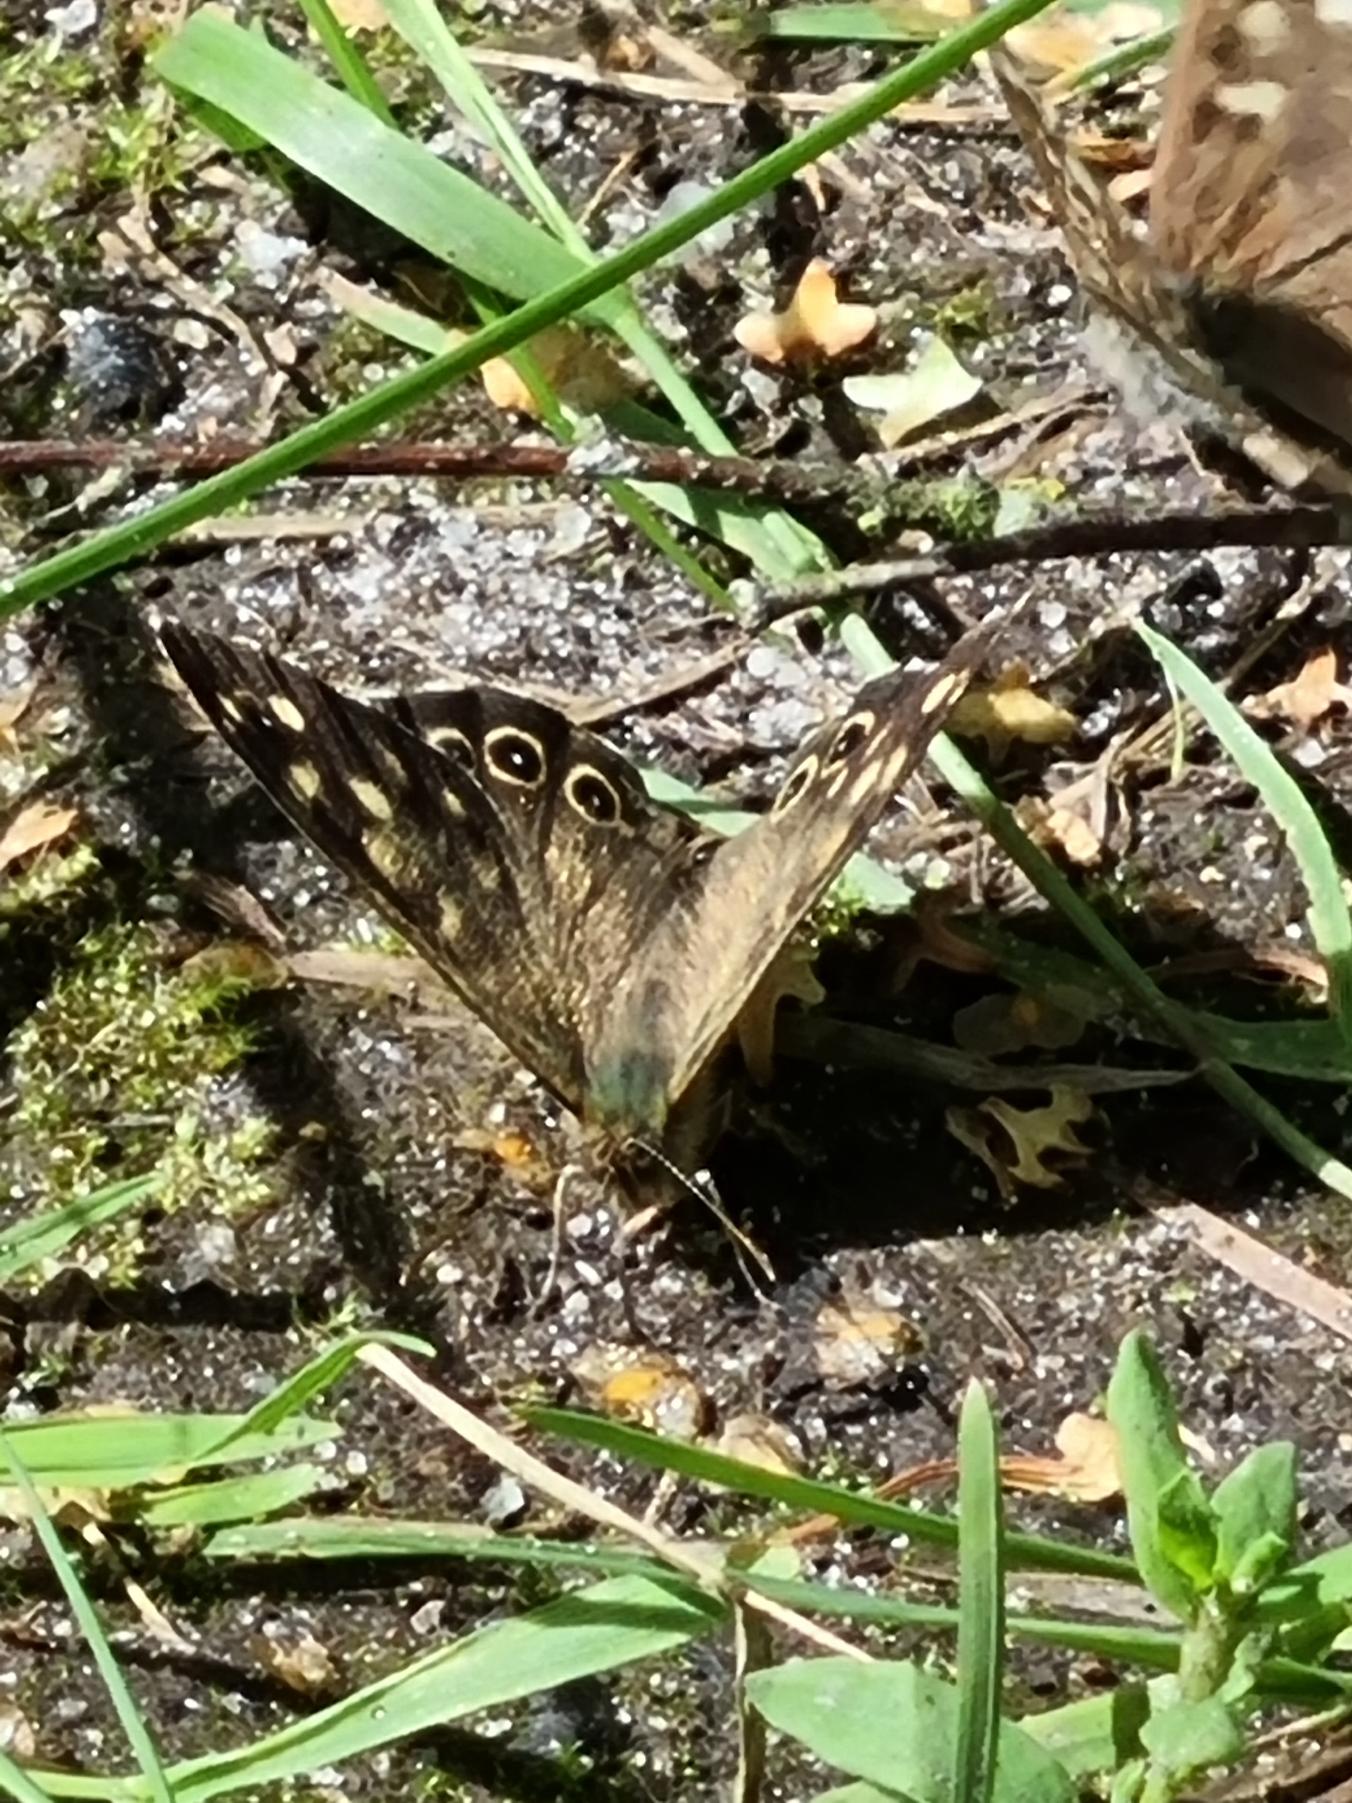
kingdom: Animalia
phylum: Arthropoda
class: Insecta
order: Lepidoptera
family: Nymphalidae
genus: Pararge
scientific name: Pararge aegeria
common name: Skovrandøje
